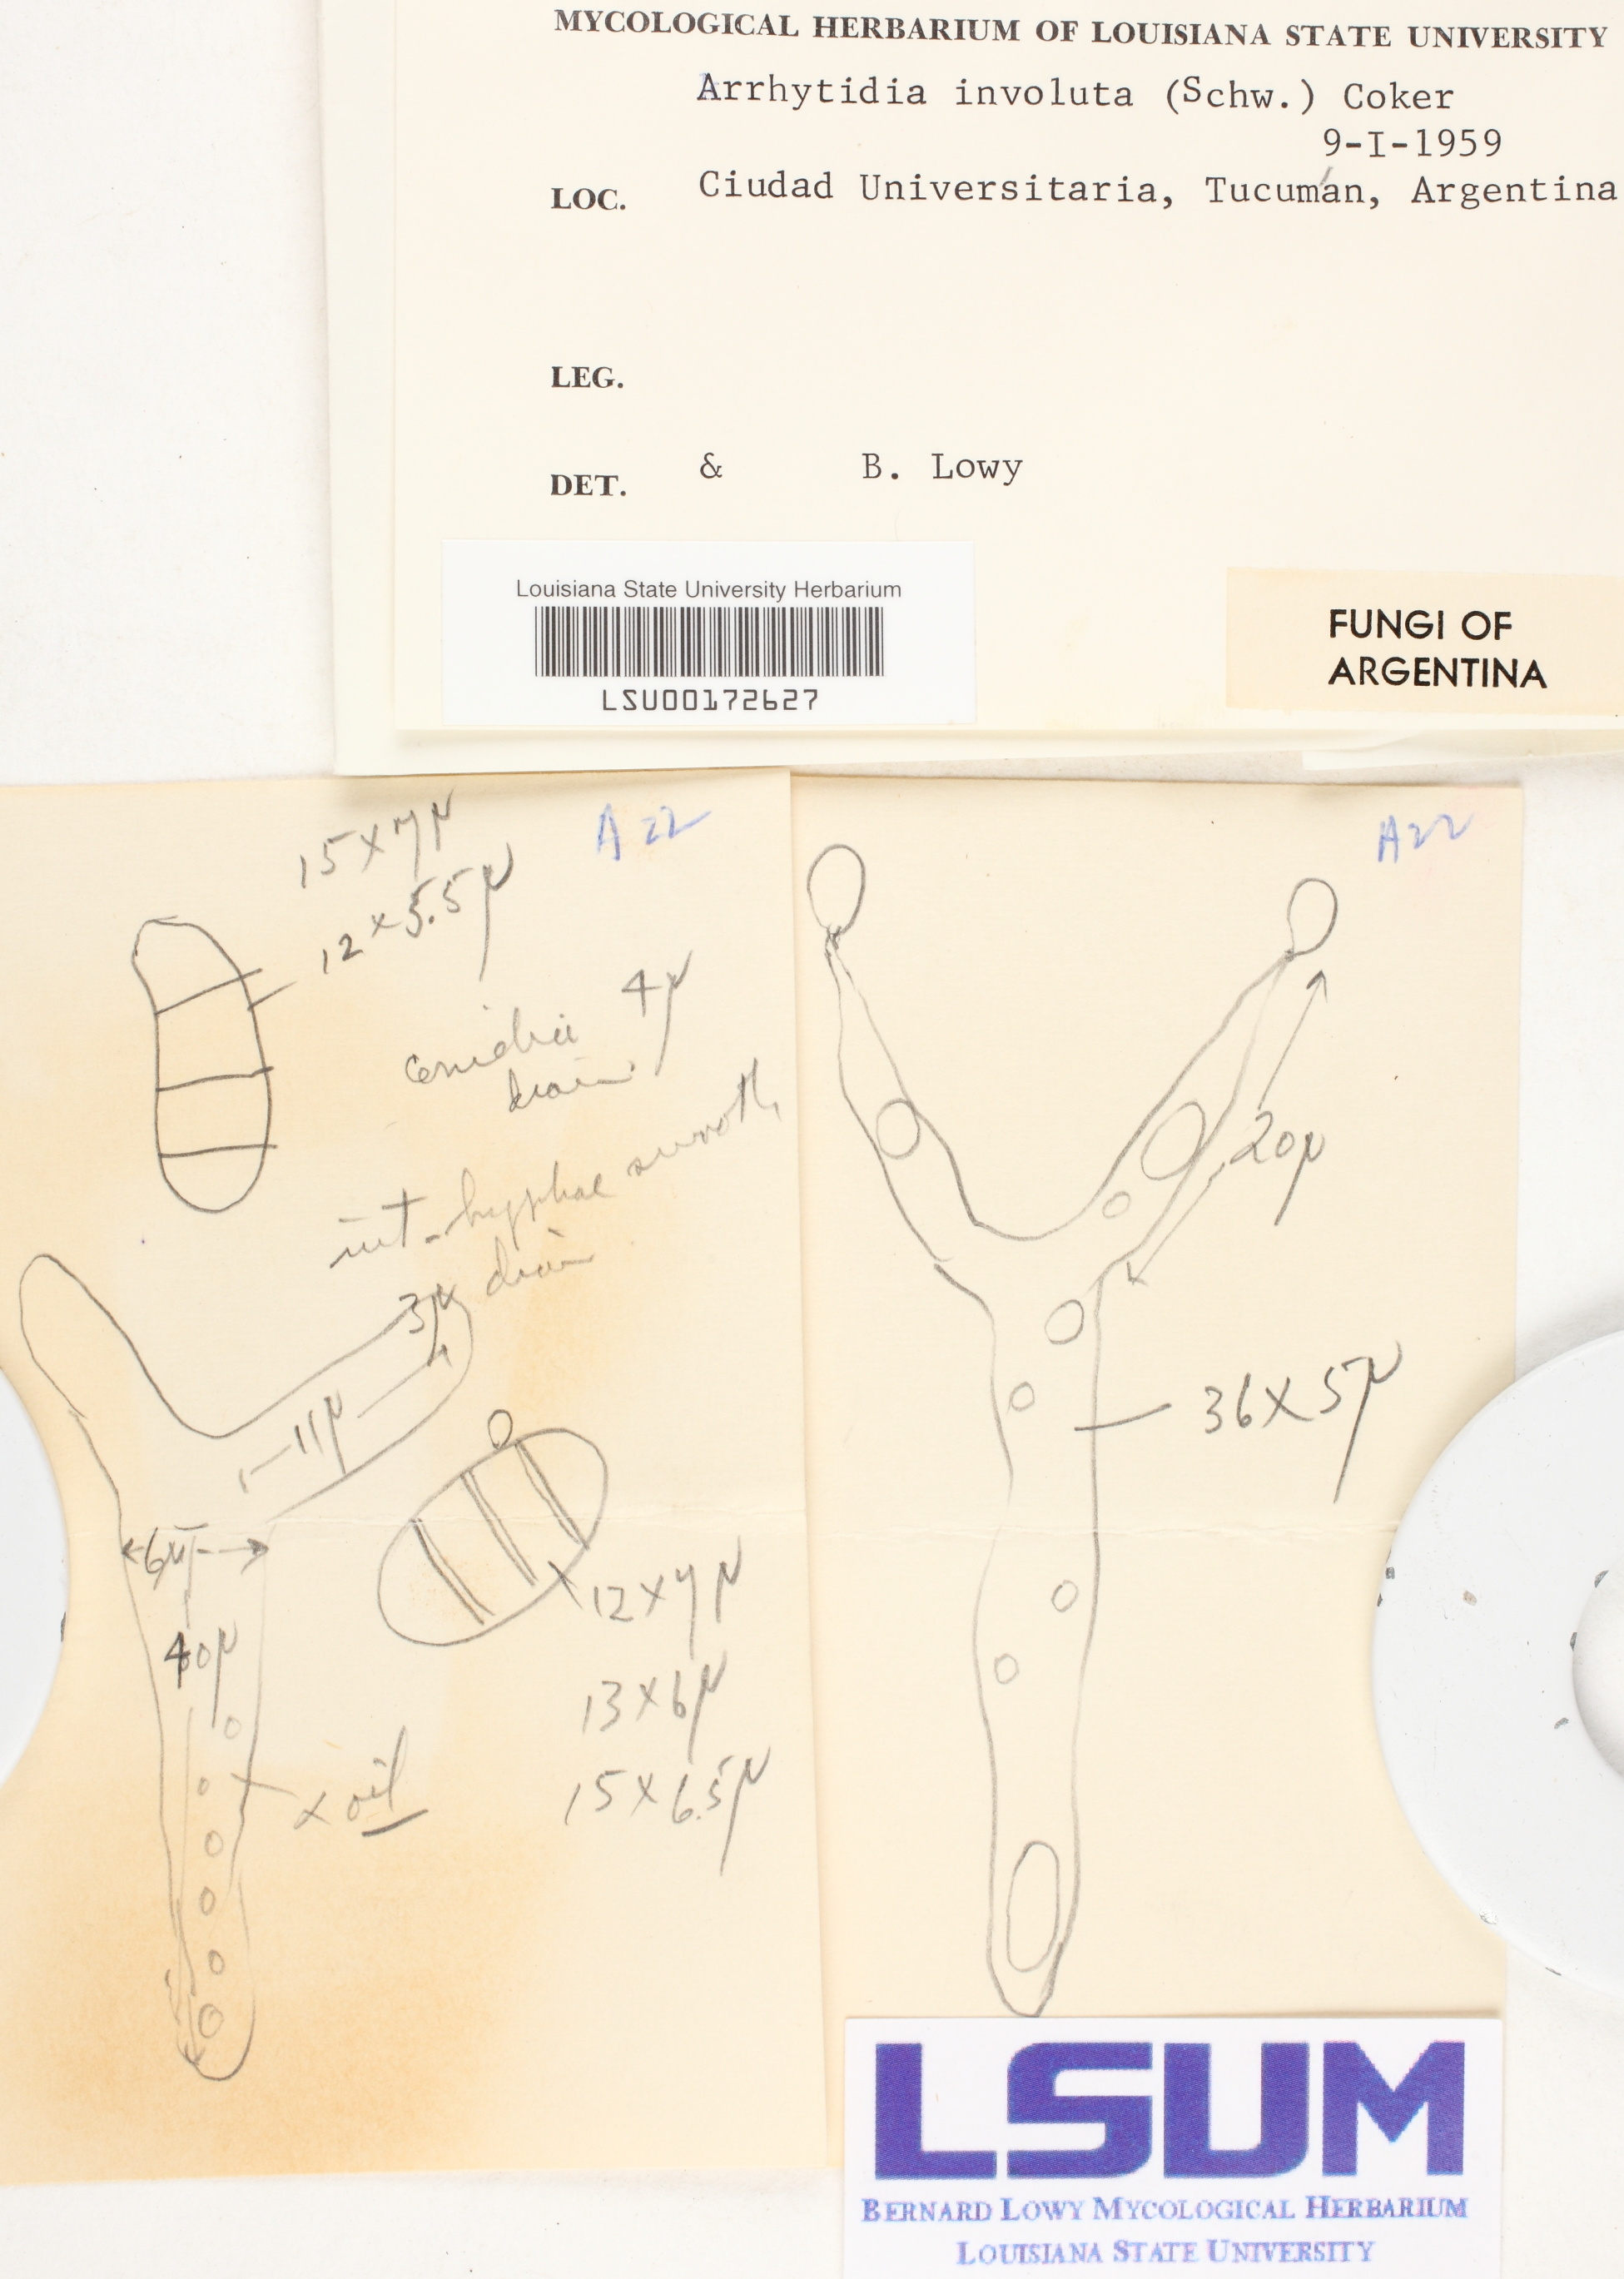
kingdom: Fungi
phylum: Basidiomycota
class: Dacrymycetes
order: Dacrymycetales
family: Dacrymycetaceae
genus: Dacrymyces
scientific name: Dacrymyces involutus
